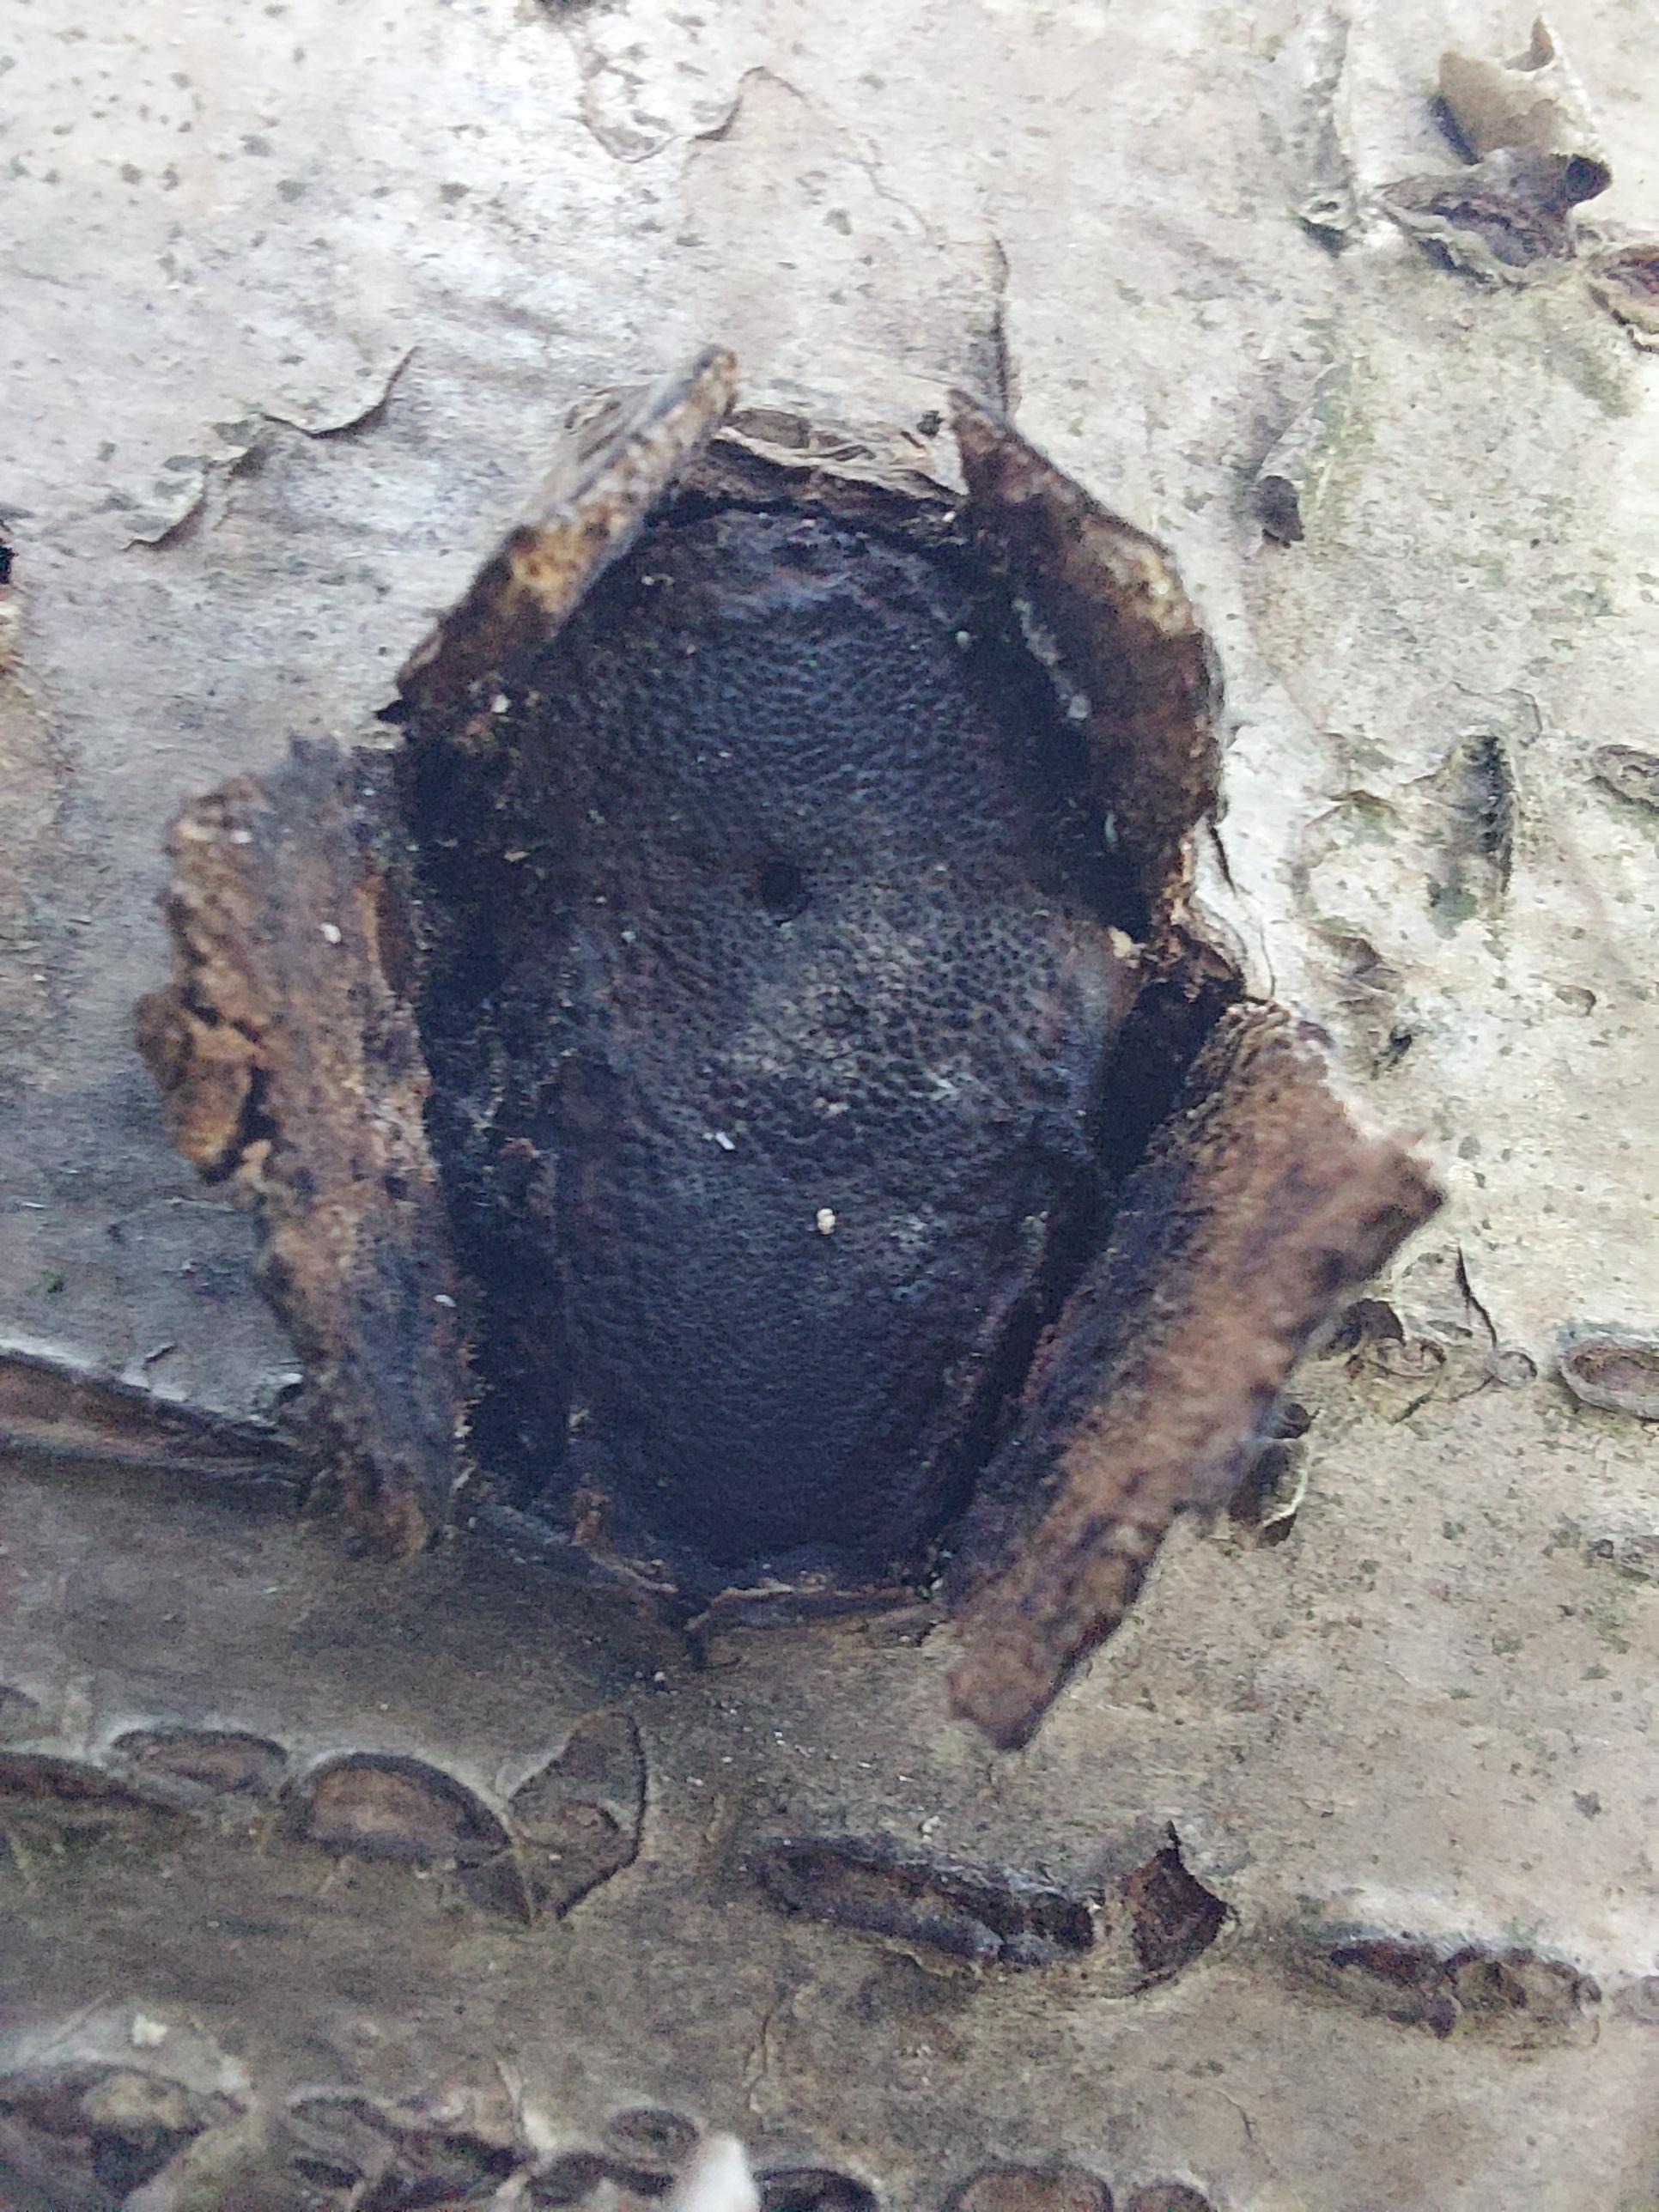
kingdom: Fungi
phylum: Ascomycota
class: Sordariomycetes
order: Boliniales
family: Boliniaceae
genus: Camarops
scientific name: Camarops polysperma
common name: elle-kulsnegl
